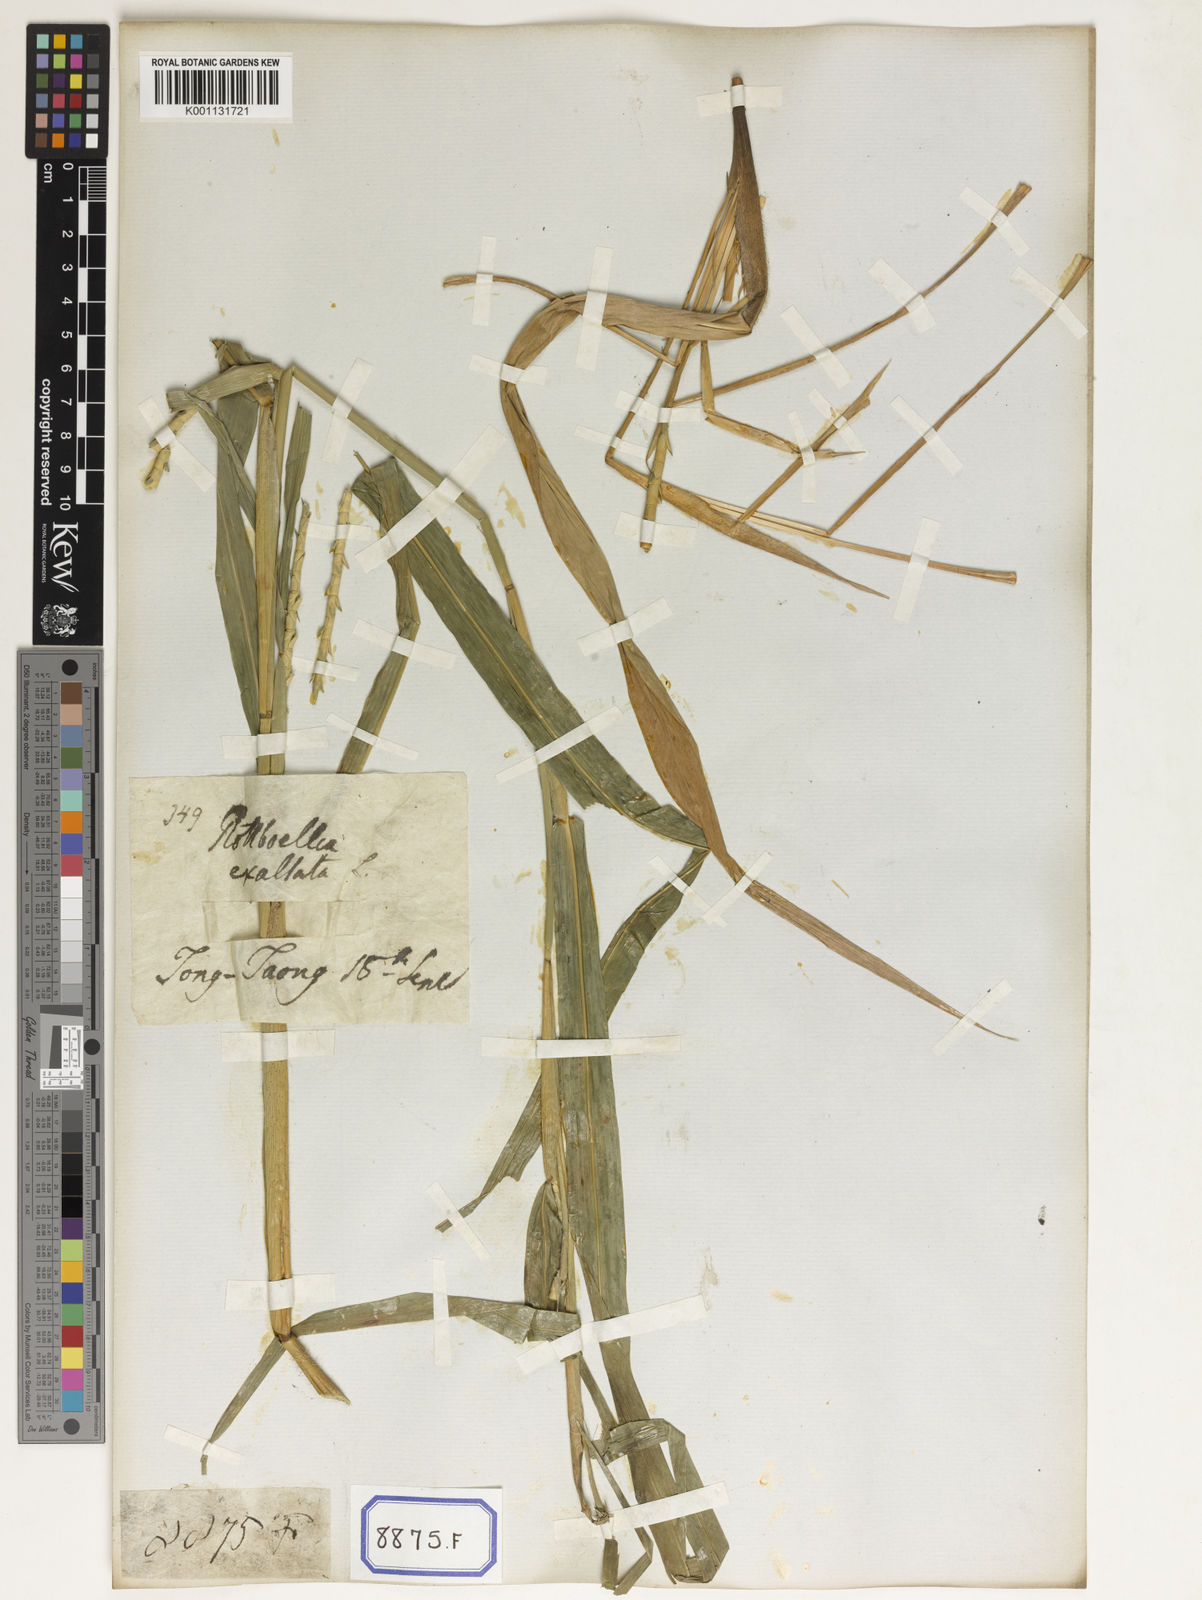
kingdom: Plantae
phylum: Tracheophyta
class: Liliopsida
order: Poales
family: Poaceae
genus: Ophiuros
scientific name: Ophiuros exaltatus
